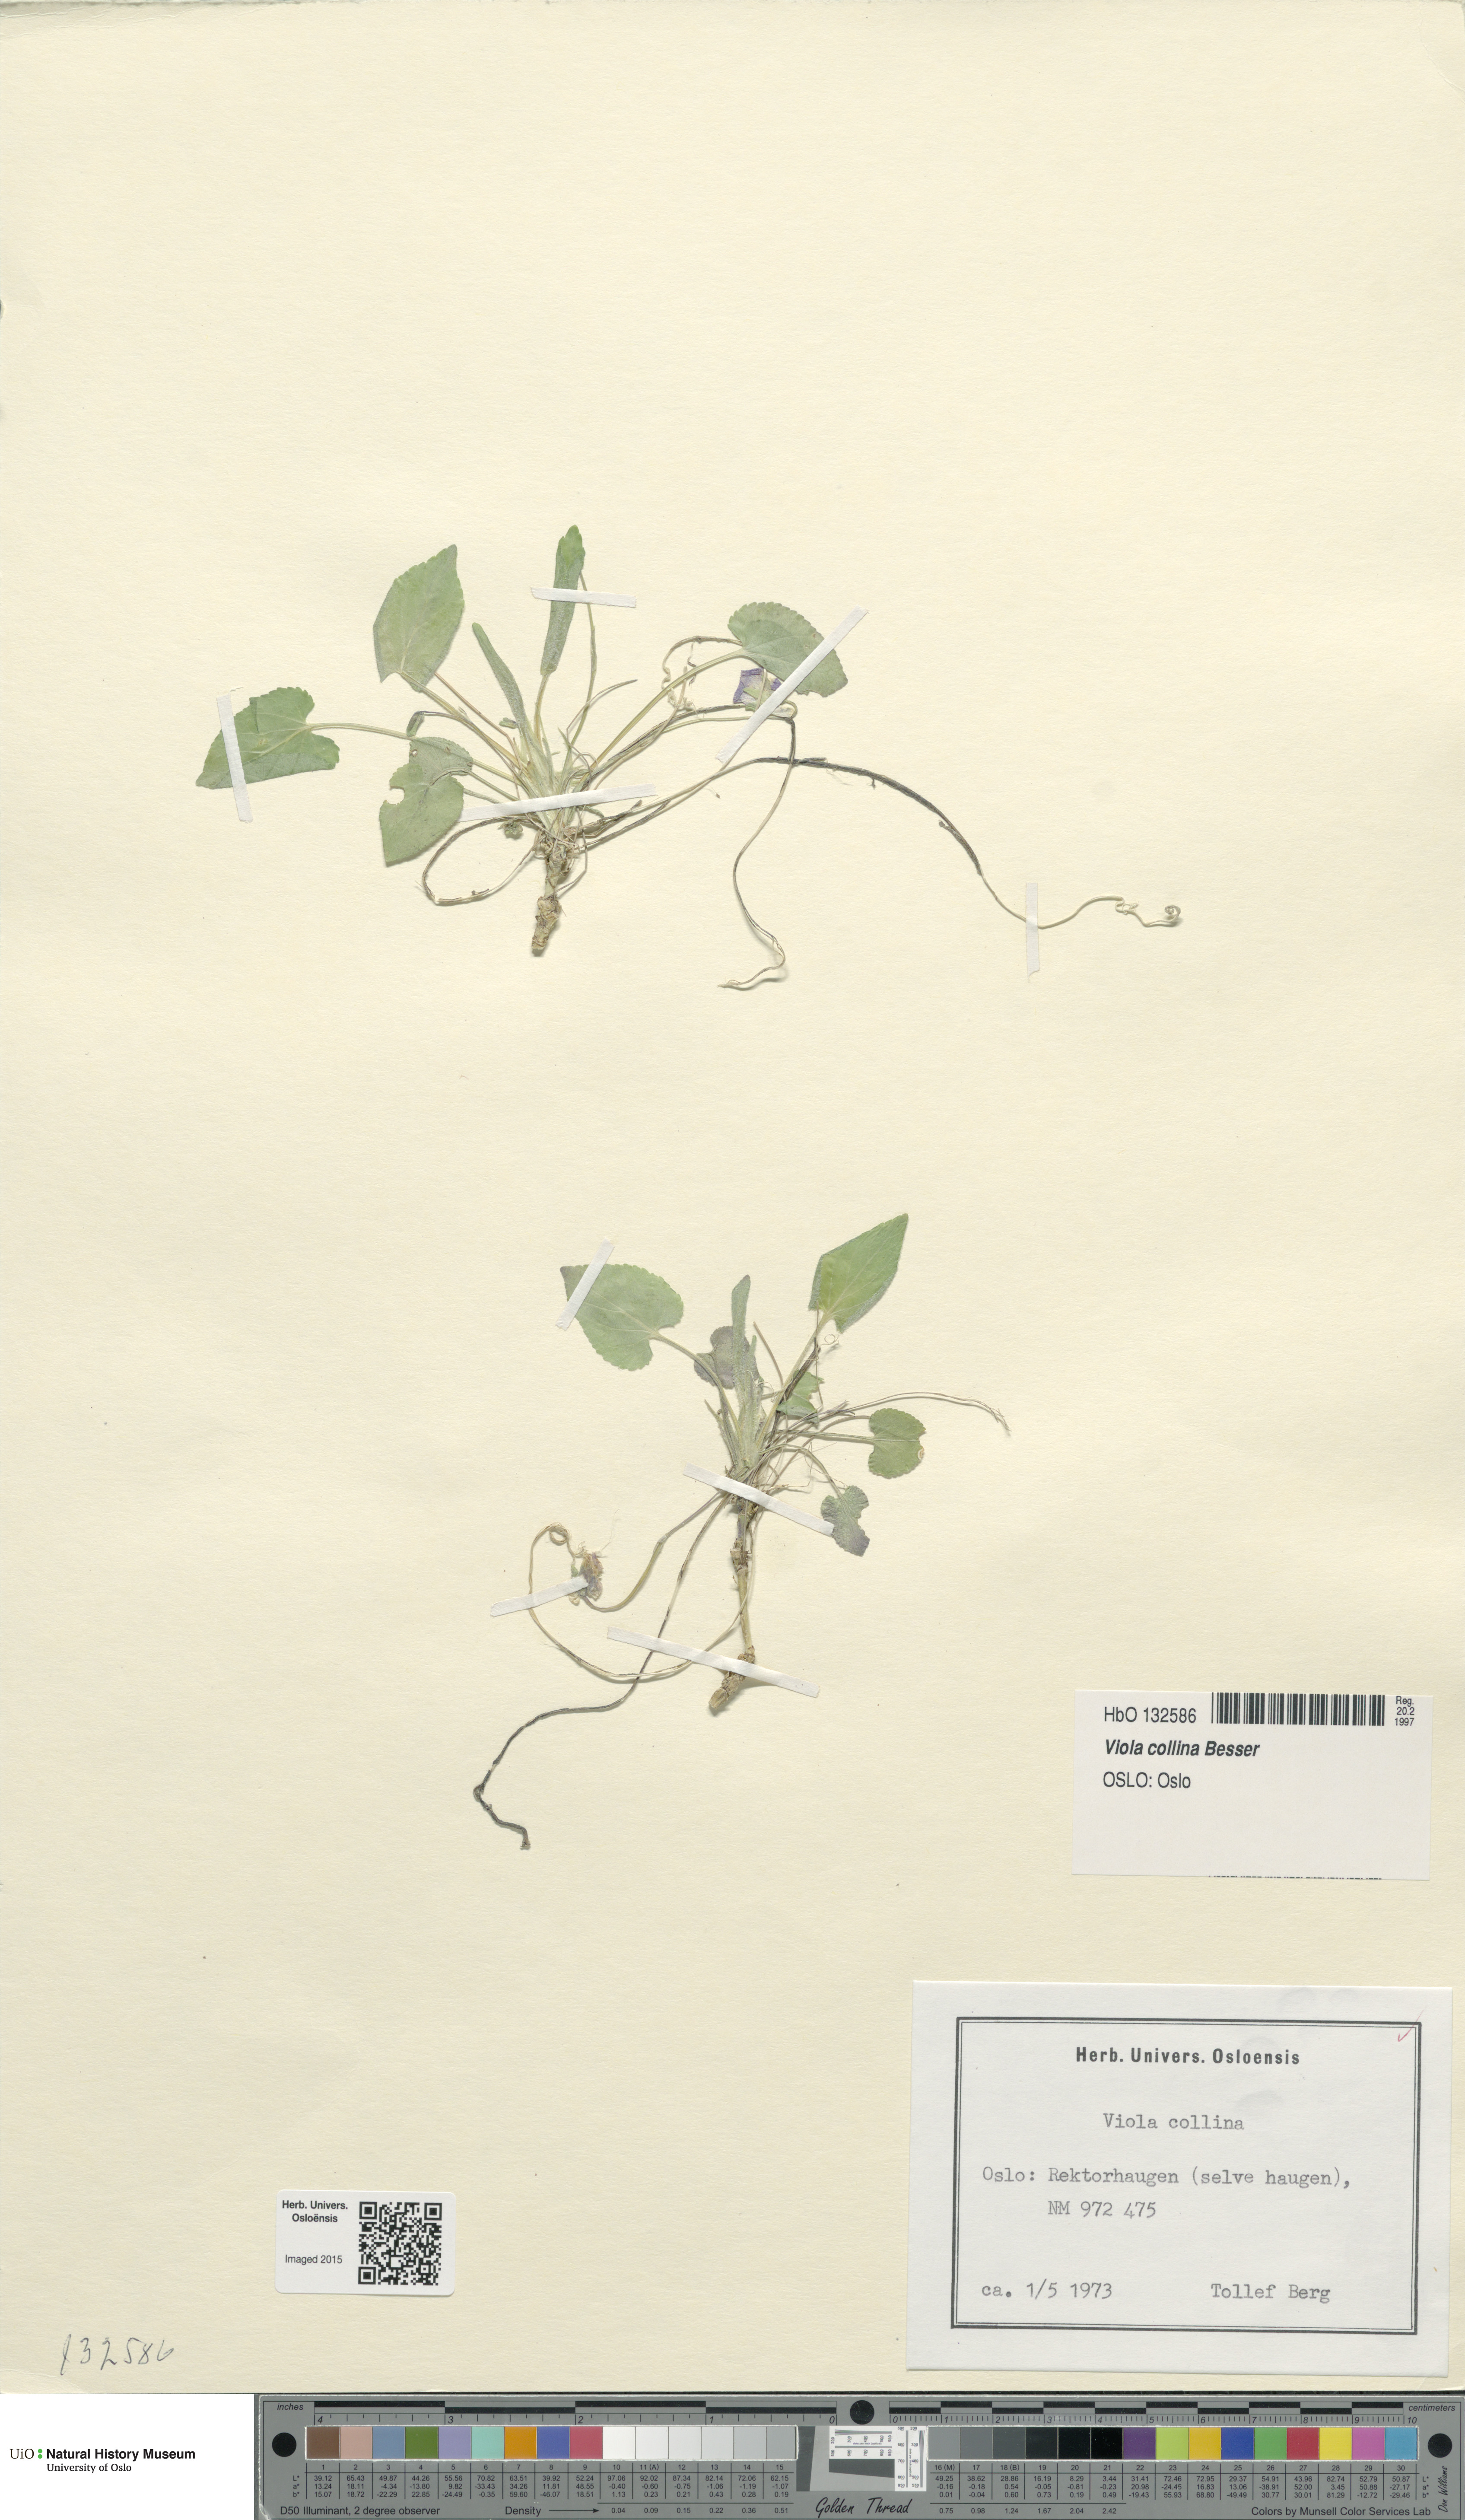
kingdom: Plantae
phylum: Tracheophyta
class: Magnoliopsida
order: Malpighiales
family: Violaceae
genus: Viola
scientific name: Viola collina
